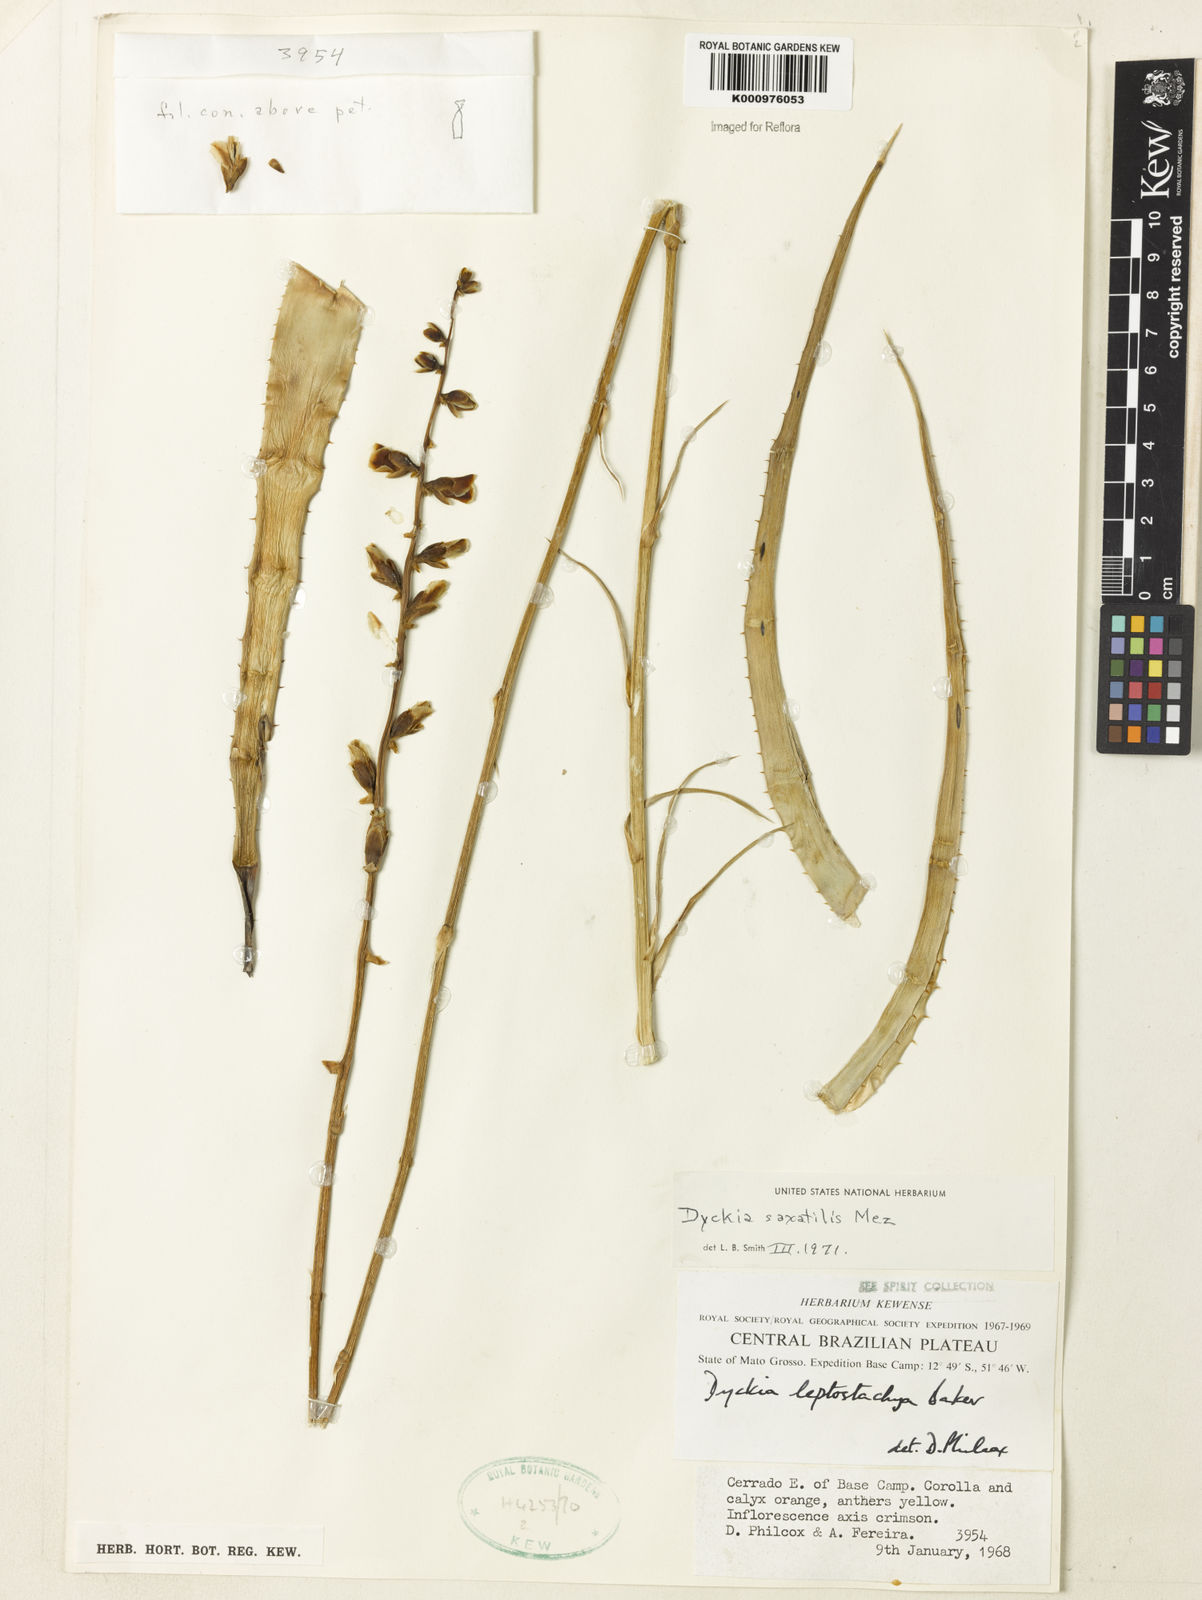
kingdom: Plantae
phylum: Tracheophyta
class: Liliopsida
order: Poales
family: Bromeliaceae
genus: Dyckia
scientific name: Dyckia saxatilis
